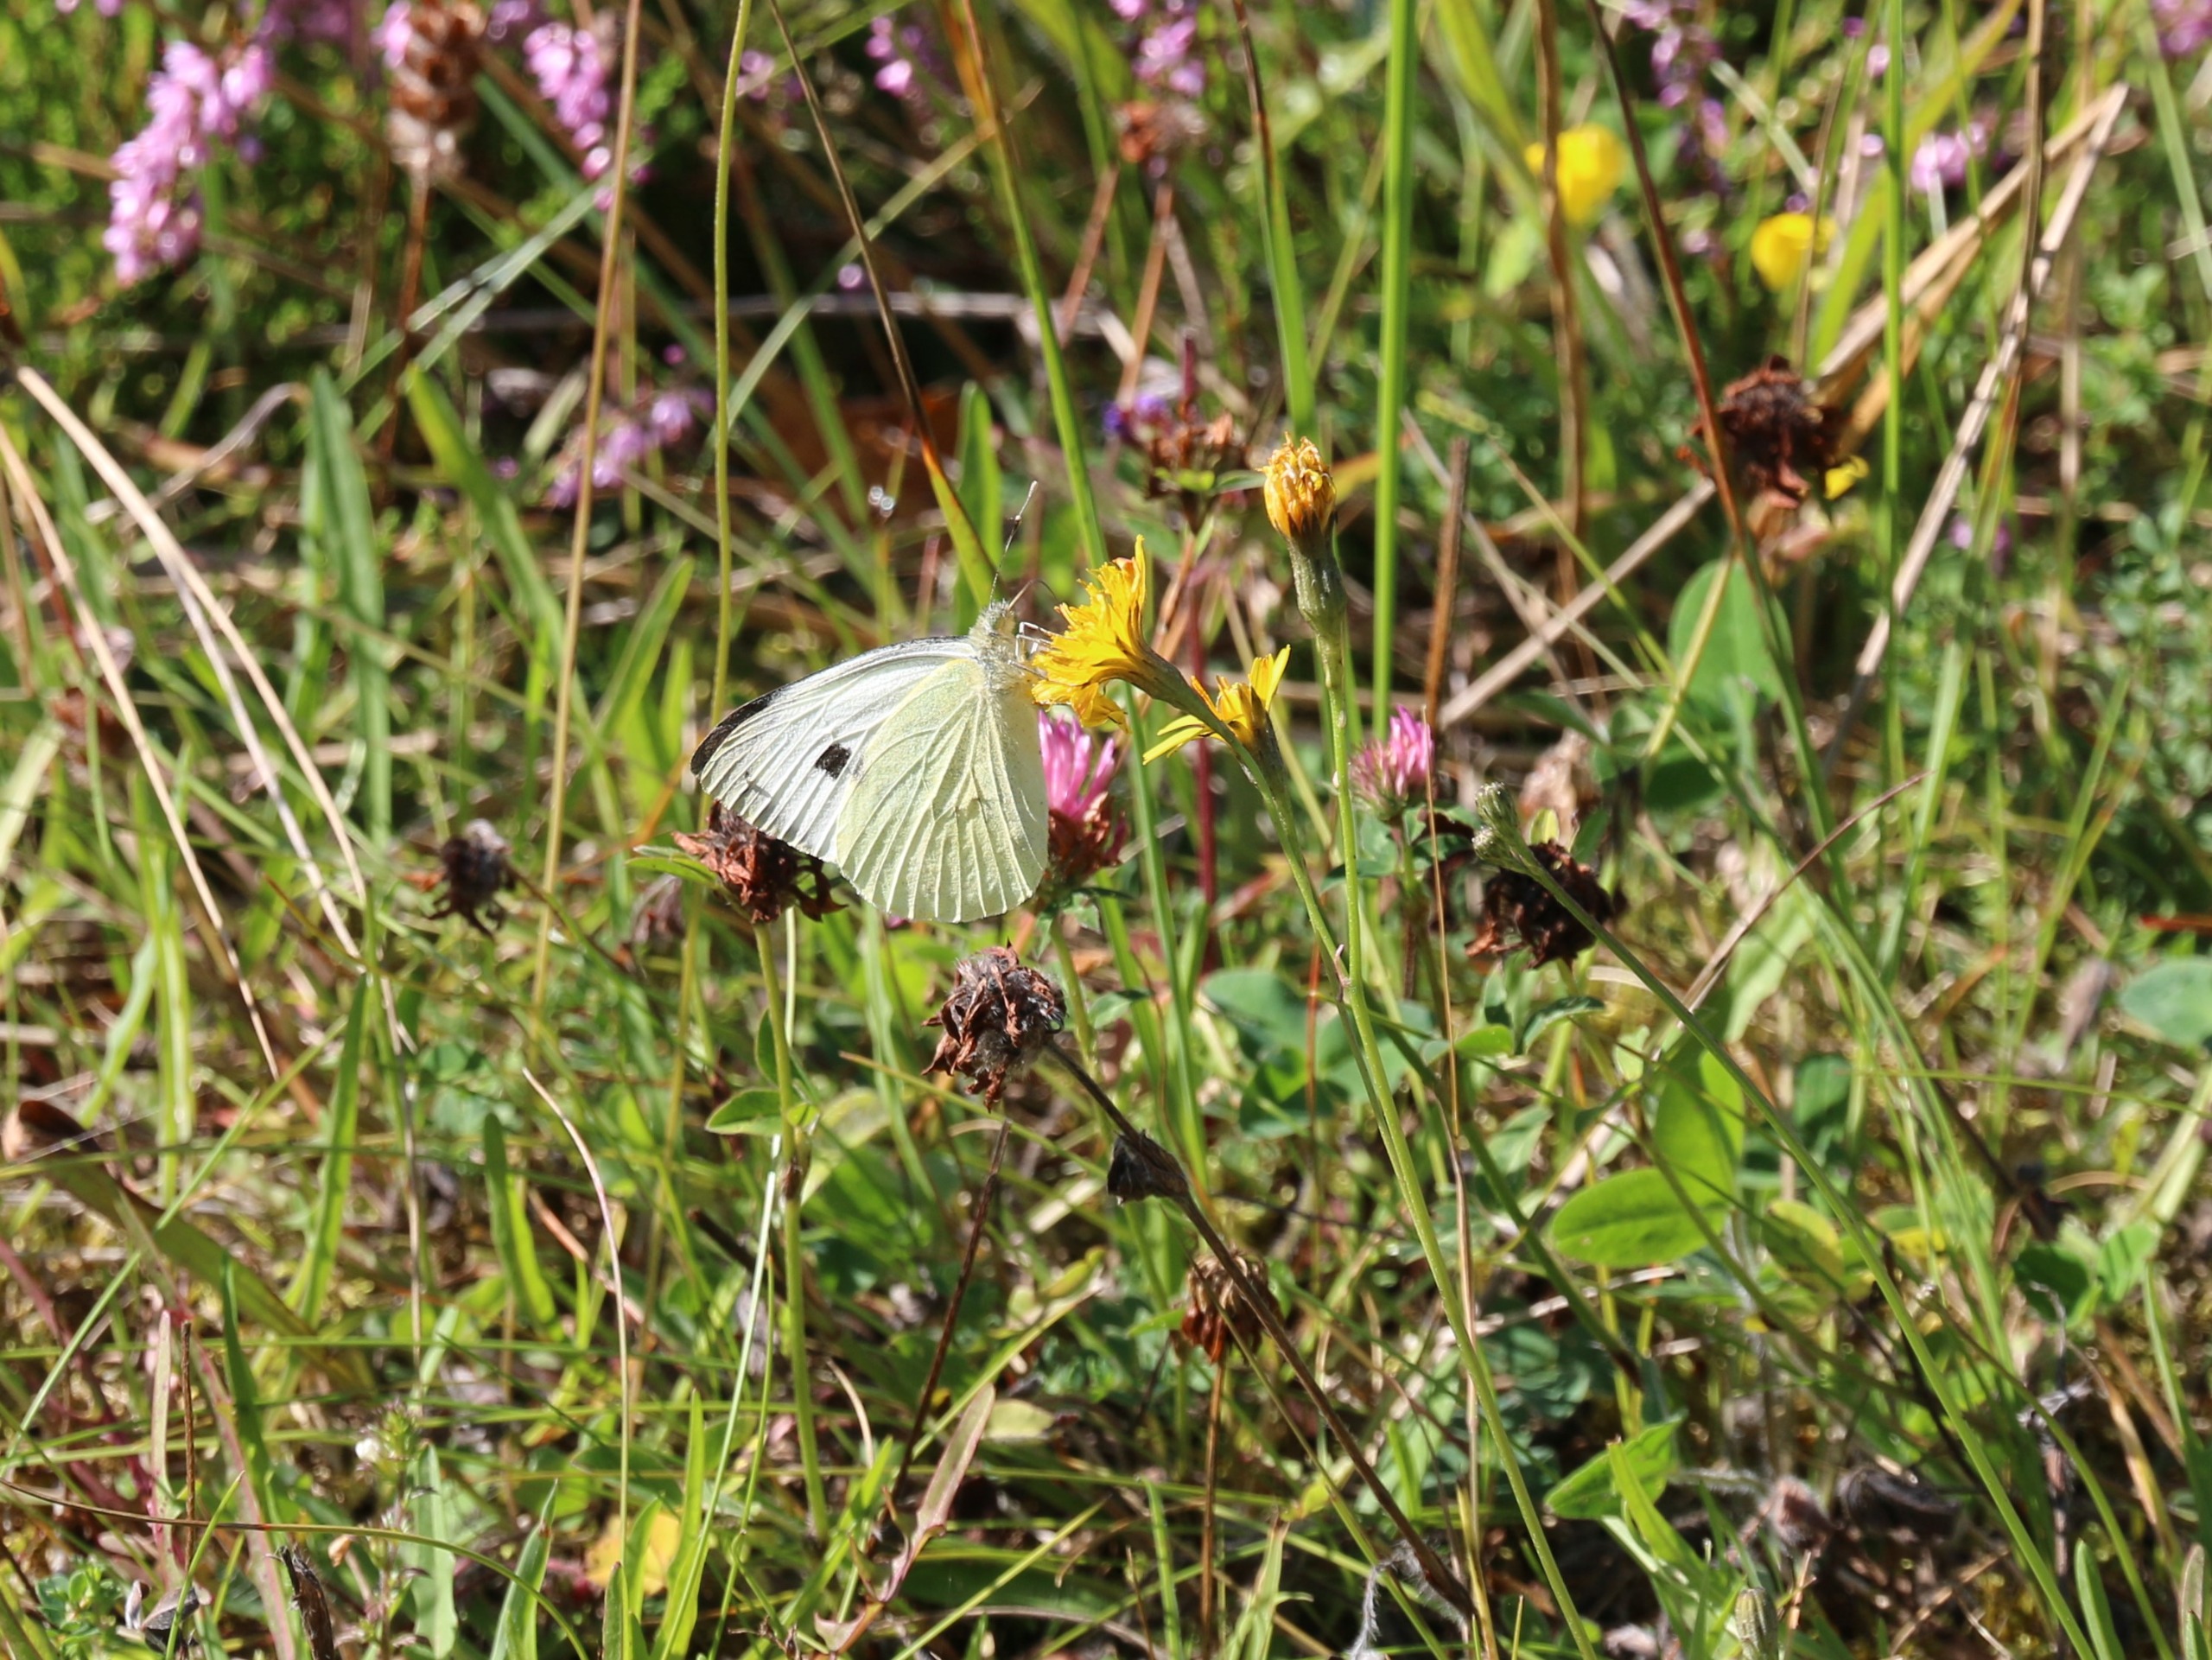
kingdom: Animalia
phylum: Arthropoda
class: Insecta
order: Lepidoptera
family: Pieridae
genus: Pieris
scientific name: Pieris brassicae
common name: Stor kålsommerfugl
